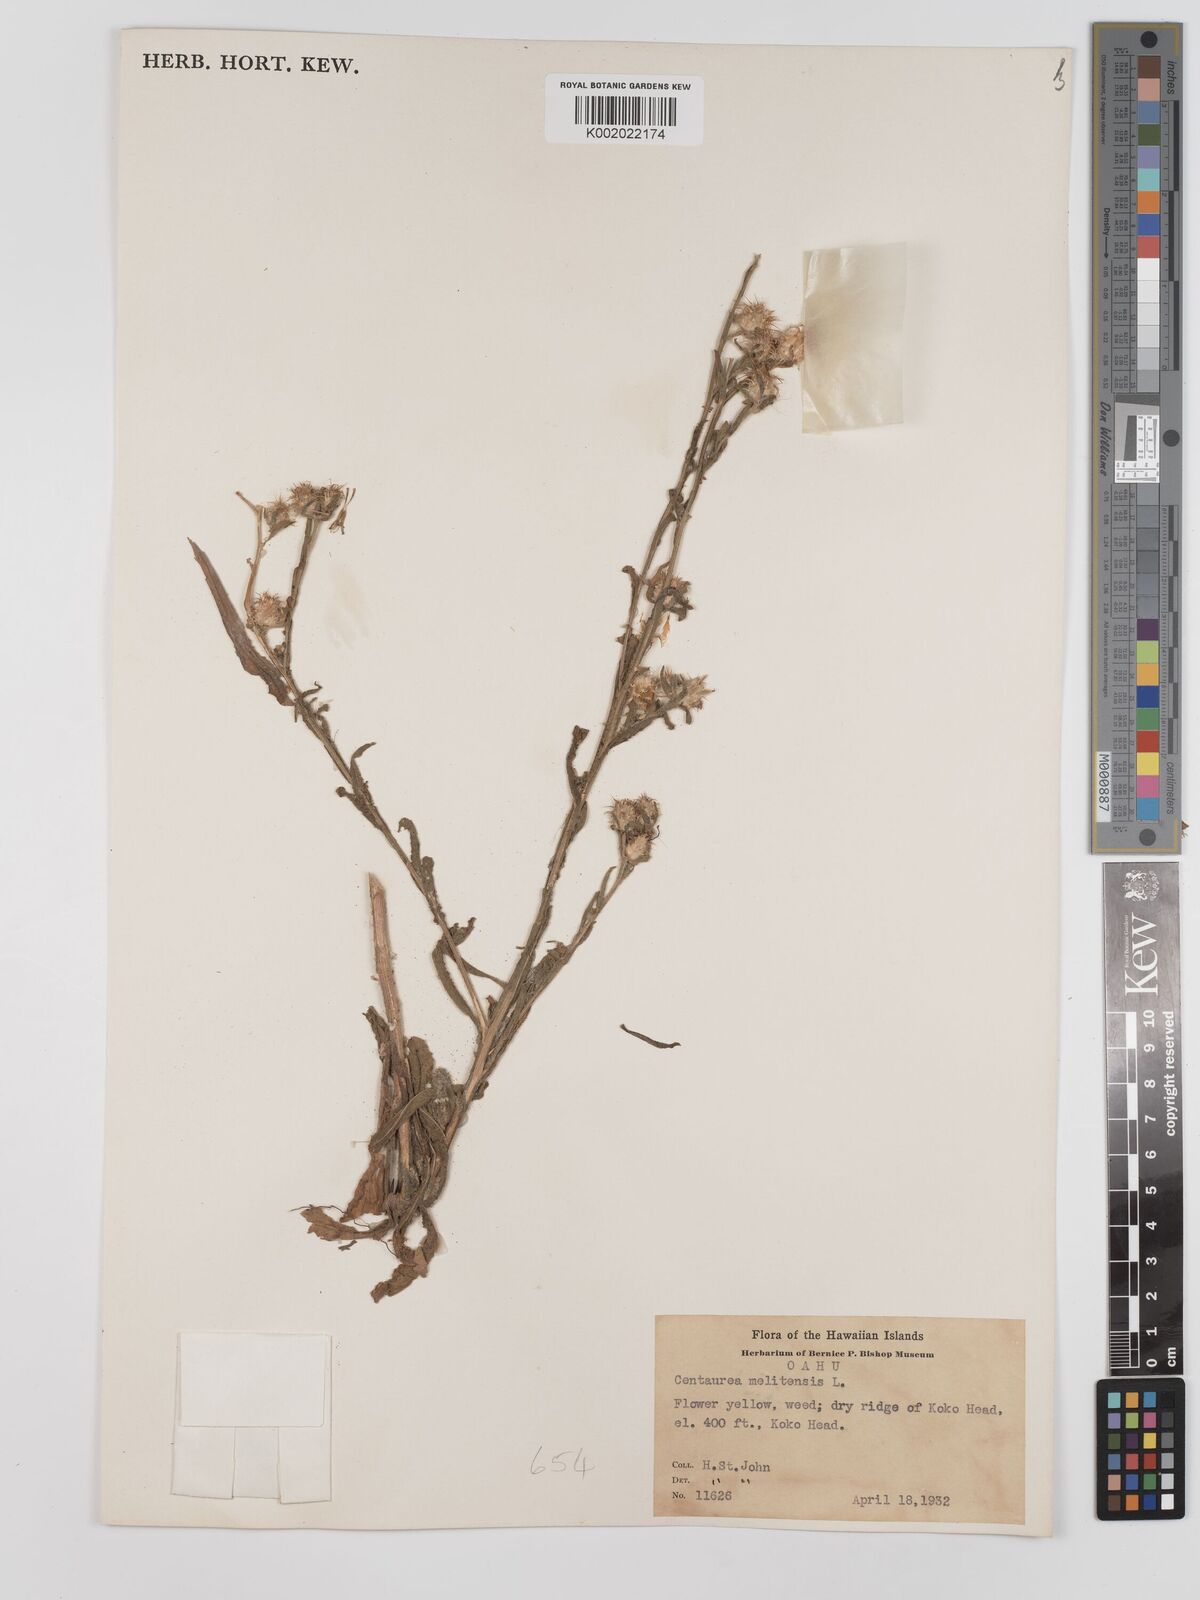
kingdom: Plantae
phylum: Tracheophyta
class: Magnoliopsida
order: Asterales
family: Asteraceae
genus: Centaurea
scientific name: Centaurea melitensis
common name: Maltese star-thistle
